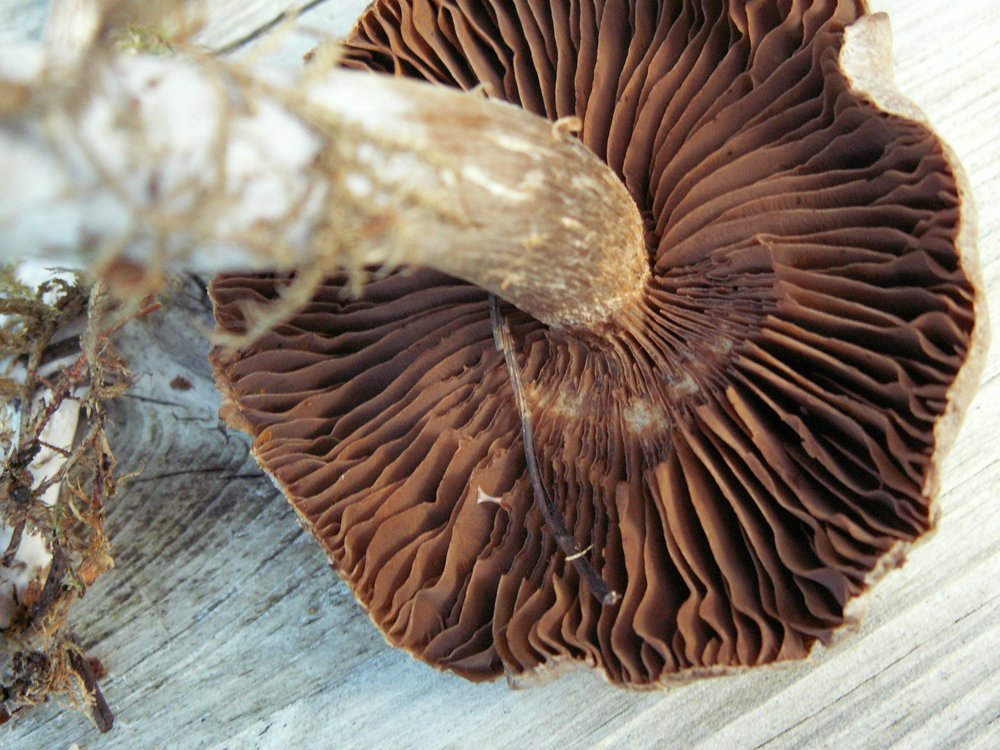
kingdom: Fungi
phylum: Basidiomycota
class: Agaricomycetes
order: Agaricales
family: Cortinariaceae
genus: Cortinarius
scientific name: Cortinarius nigrocuspidatus
